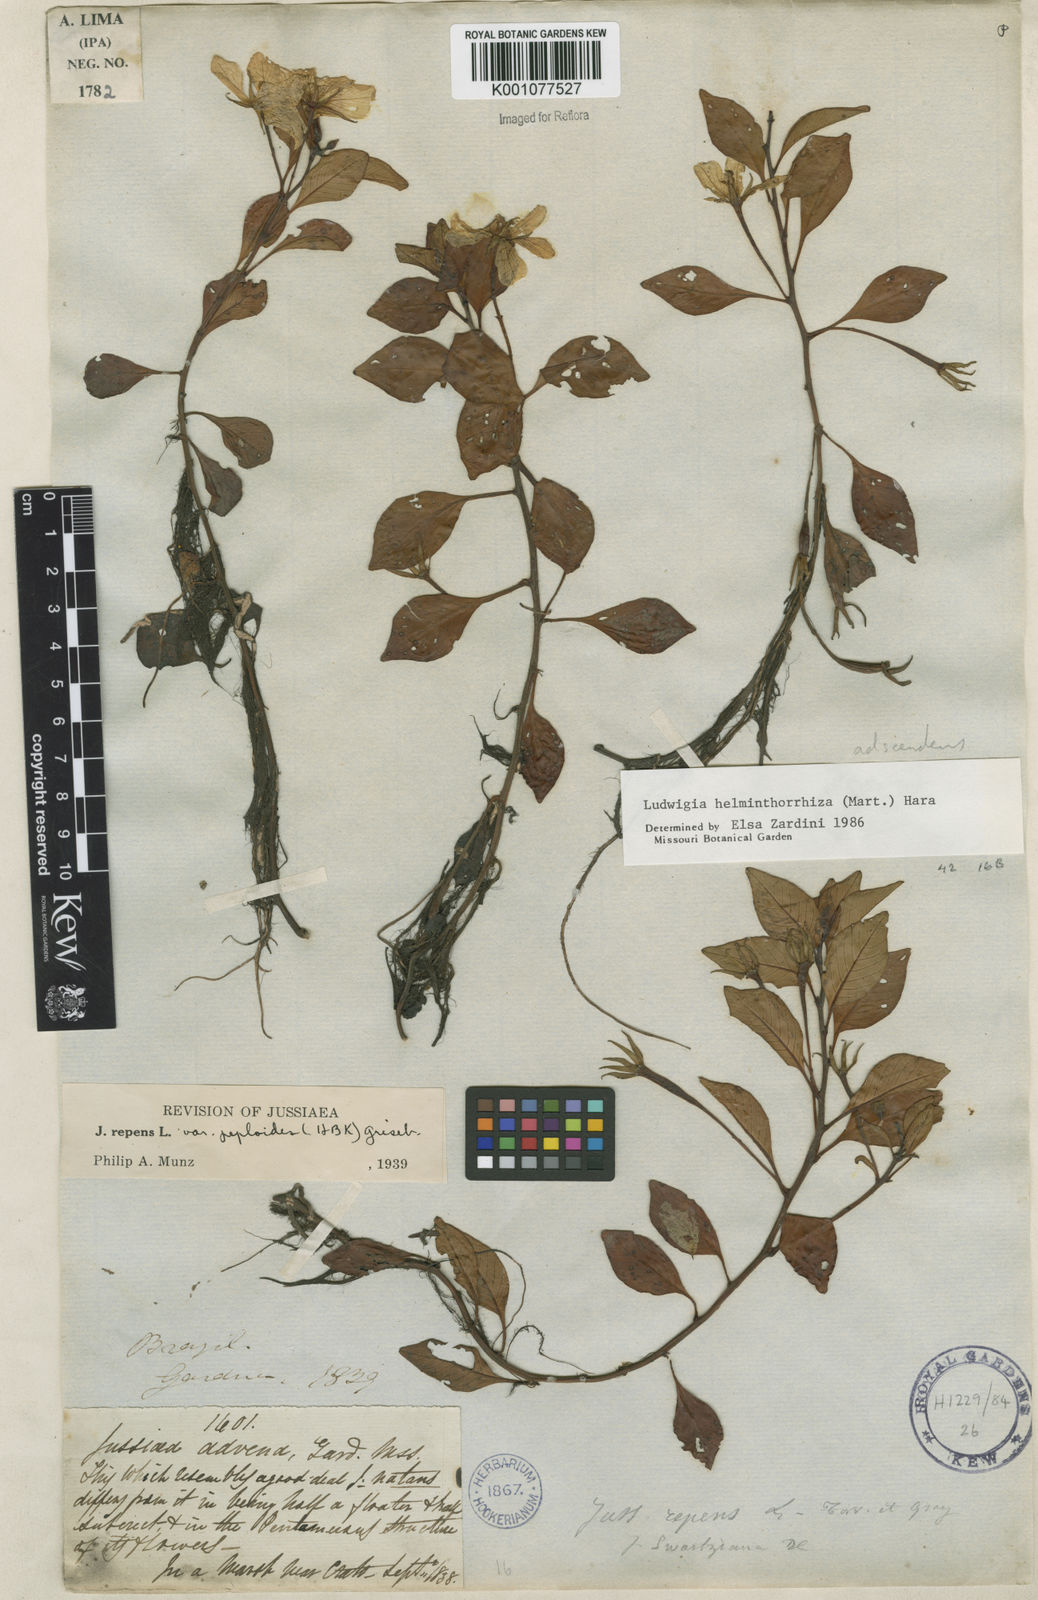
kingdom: Plantae
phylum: Tracheophyta
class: Magnoliopsida
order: Myrtales
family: Onagraceae
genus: Ludwigia
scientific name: Ludwigia helminthorrhiza
